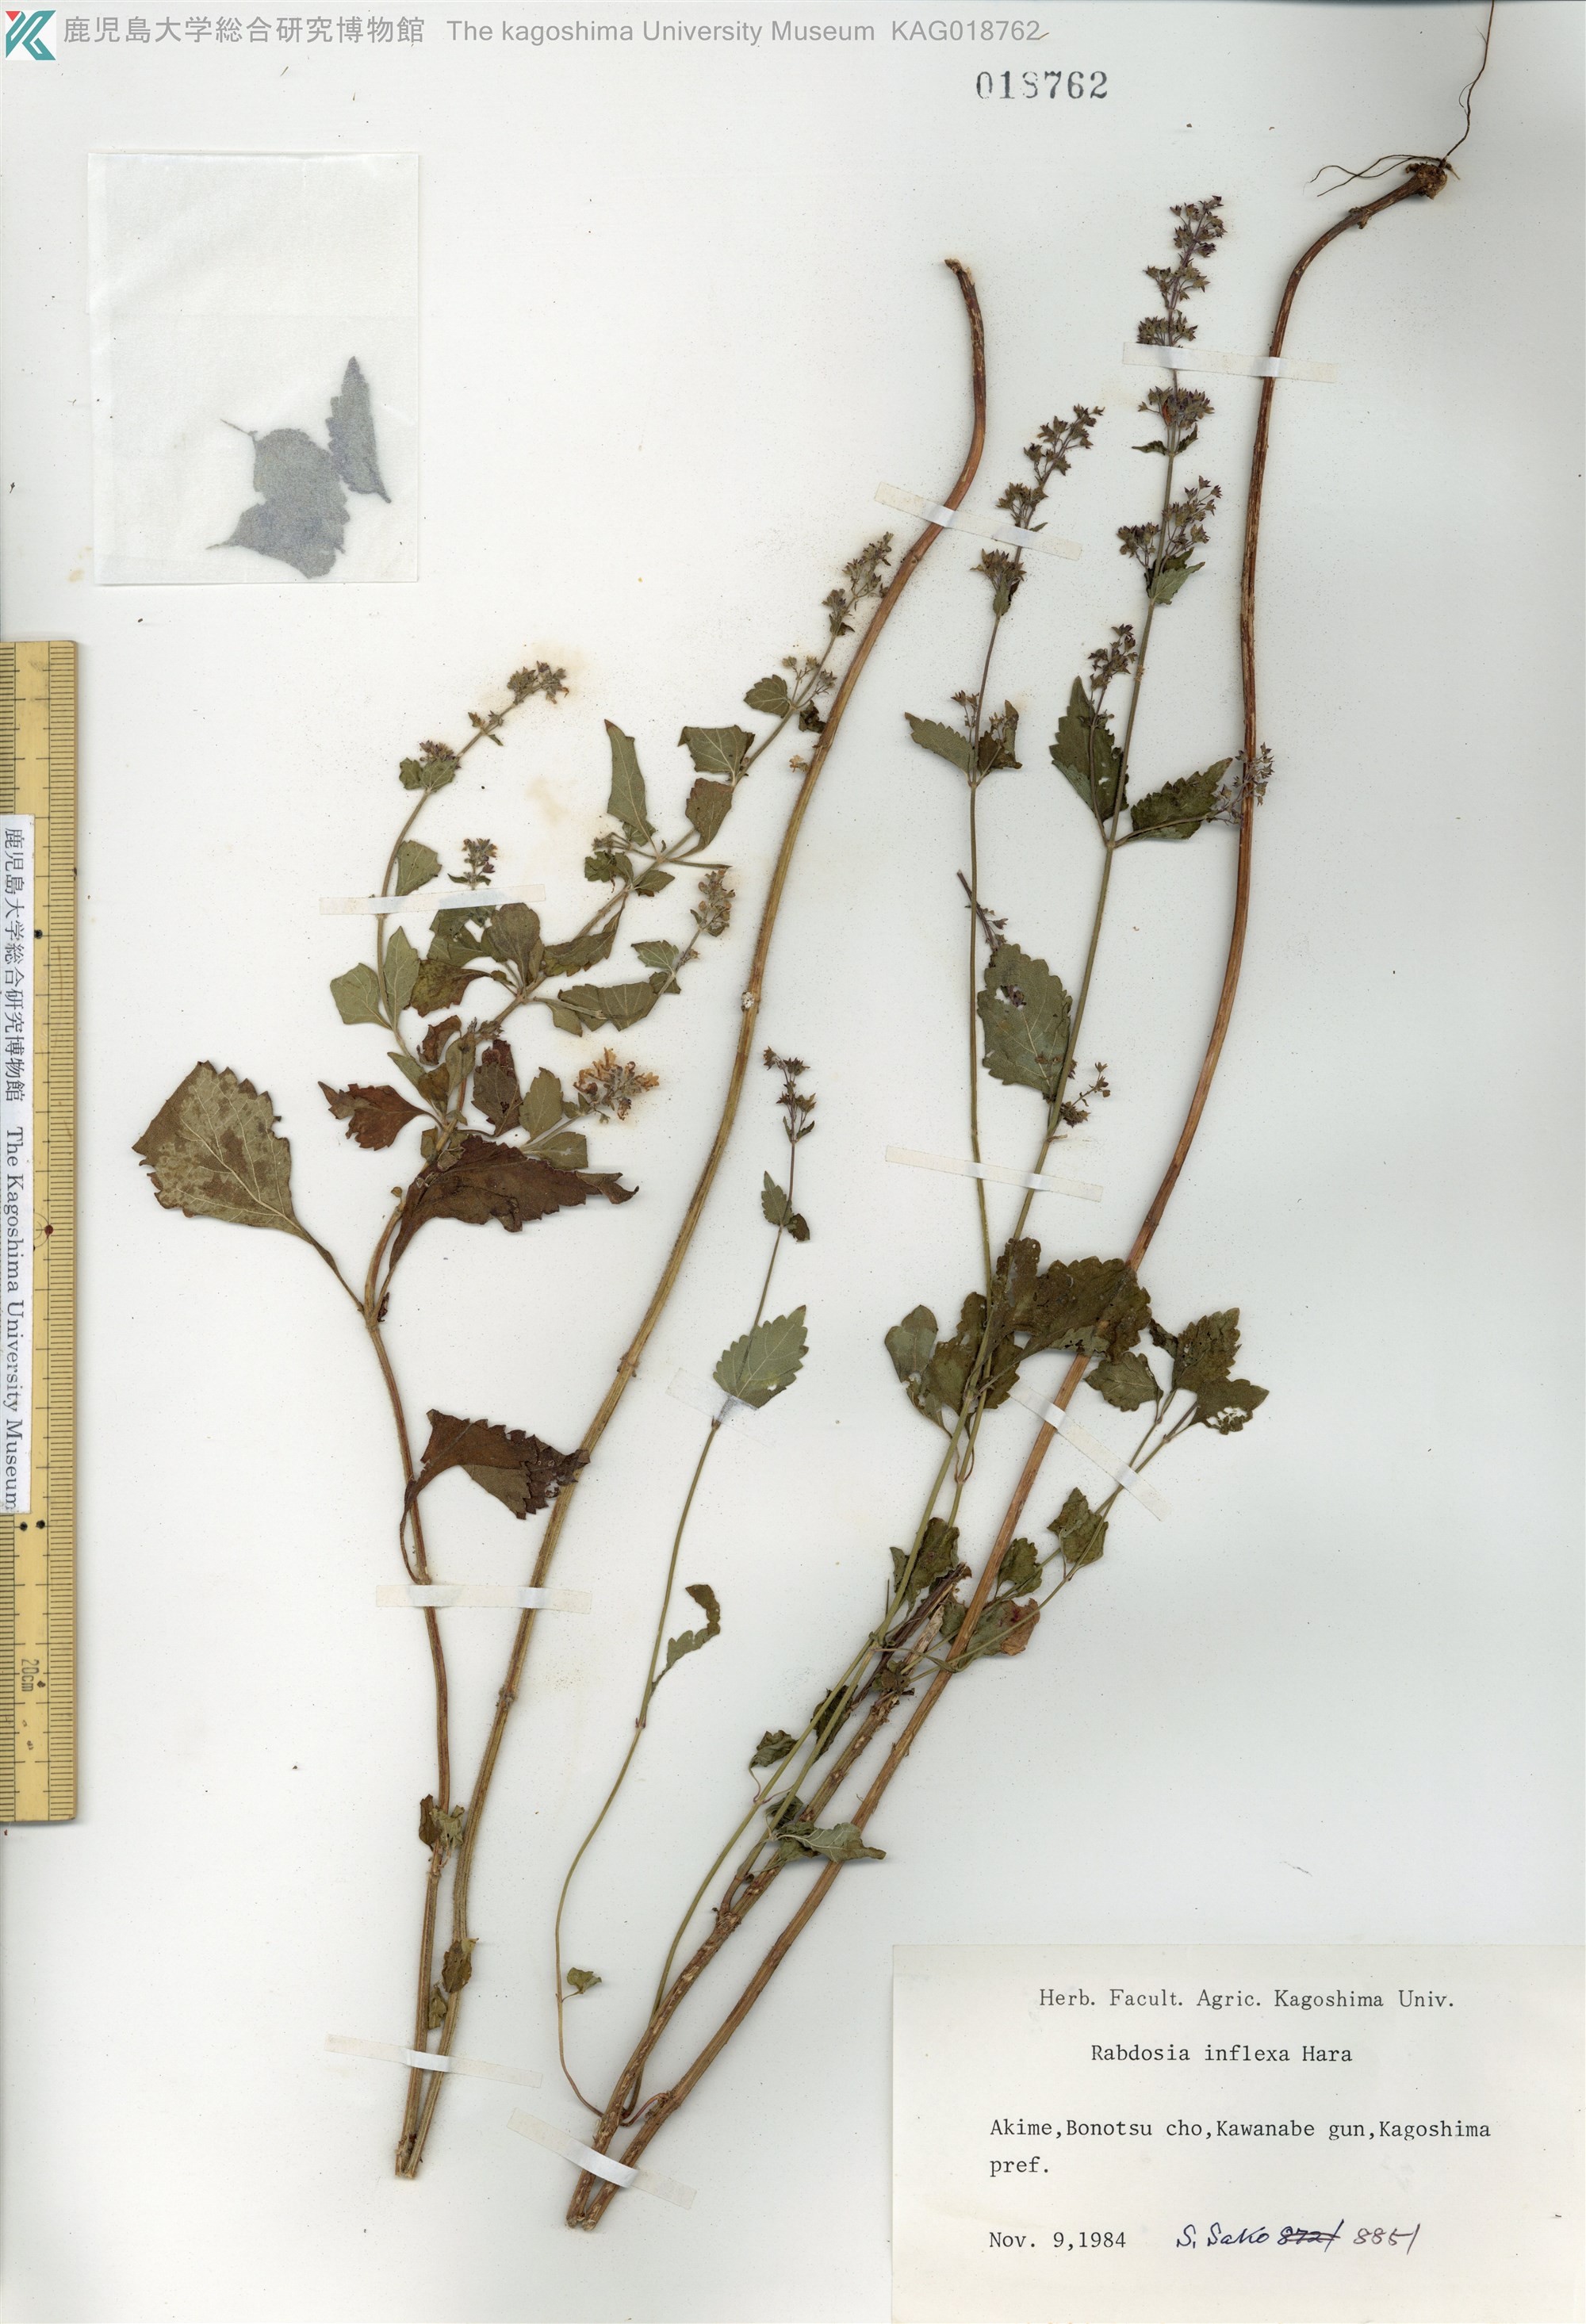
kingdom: Plantae
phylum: Tracheophyta
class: Magnoliopsida
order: Lamiales
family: Lamiaceae
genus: Isodon
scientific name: Isodon inflexus
